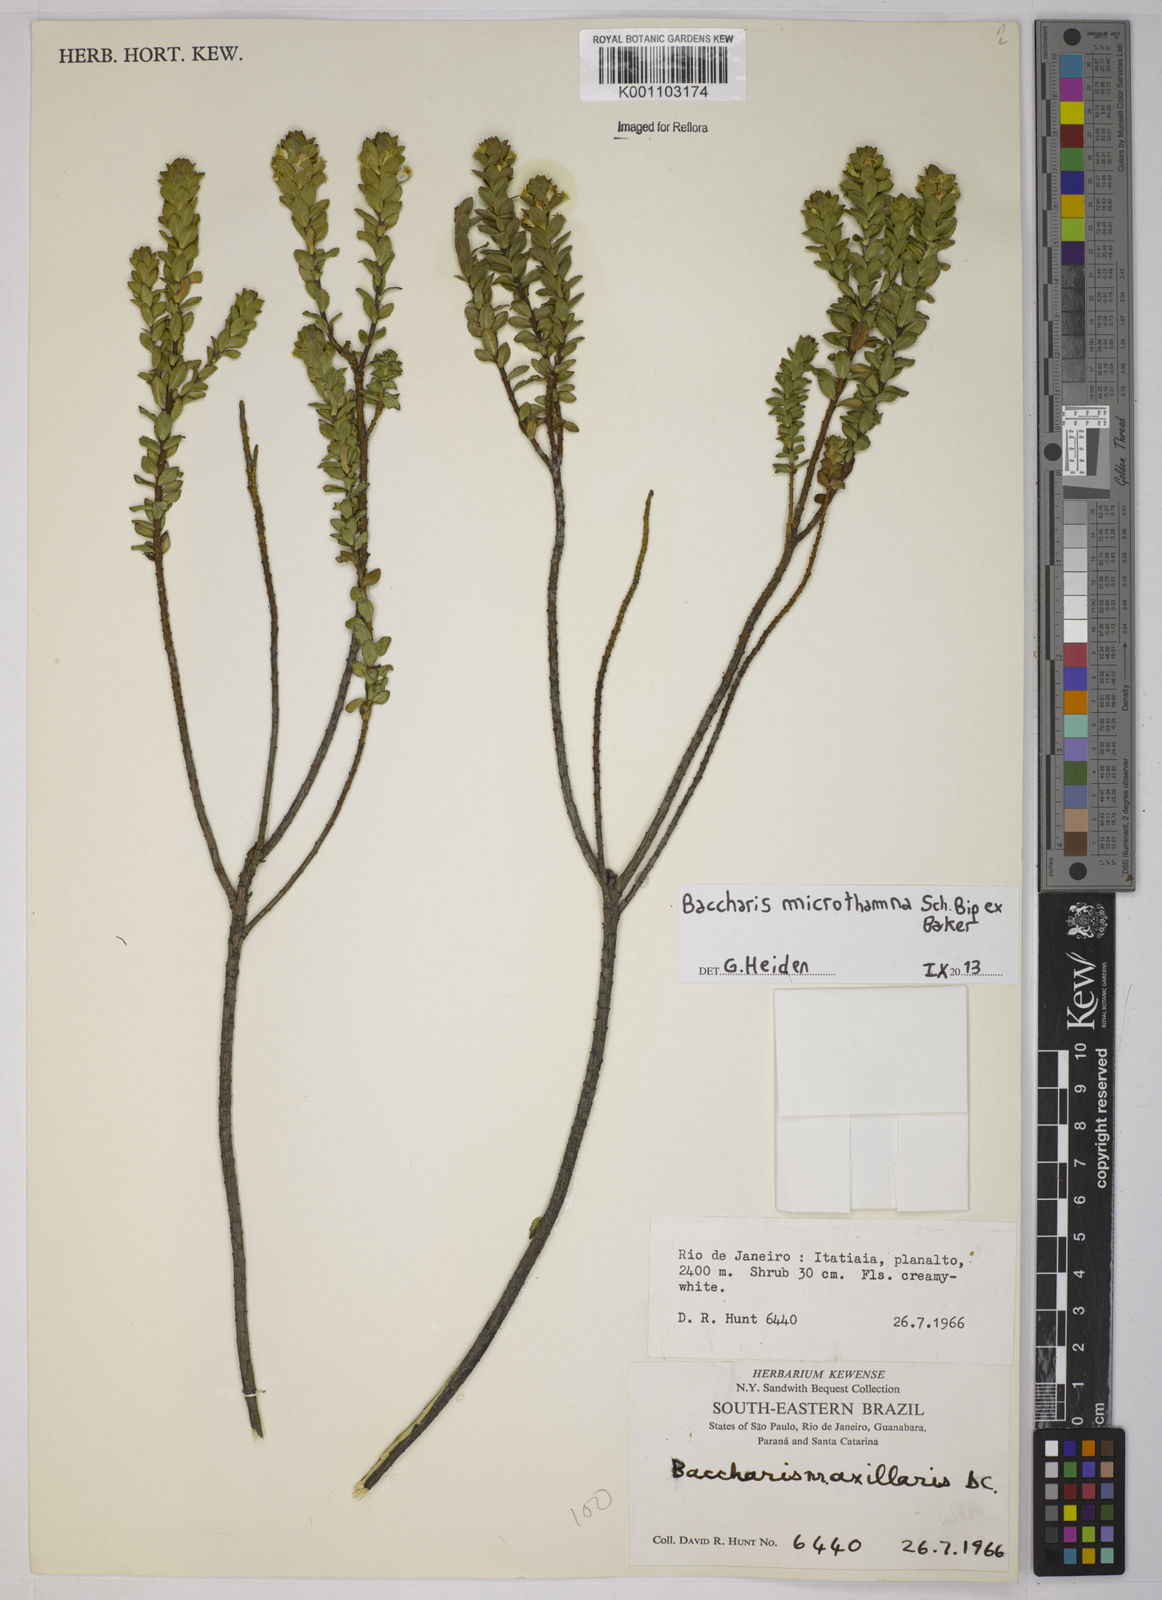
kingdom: Plantae
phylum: Tracheophyta
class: Magnoliopsida
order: Asterales
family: Asteraceae
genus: Baccharis
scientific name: Baccharis selloi
